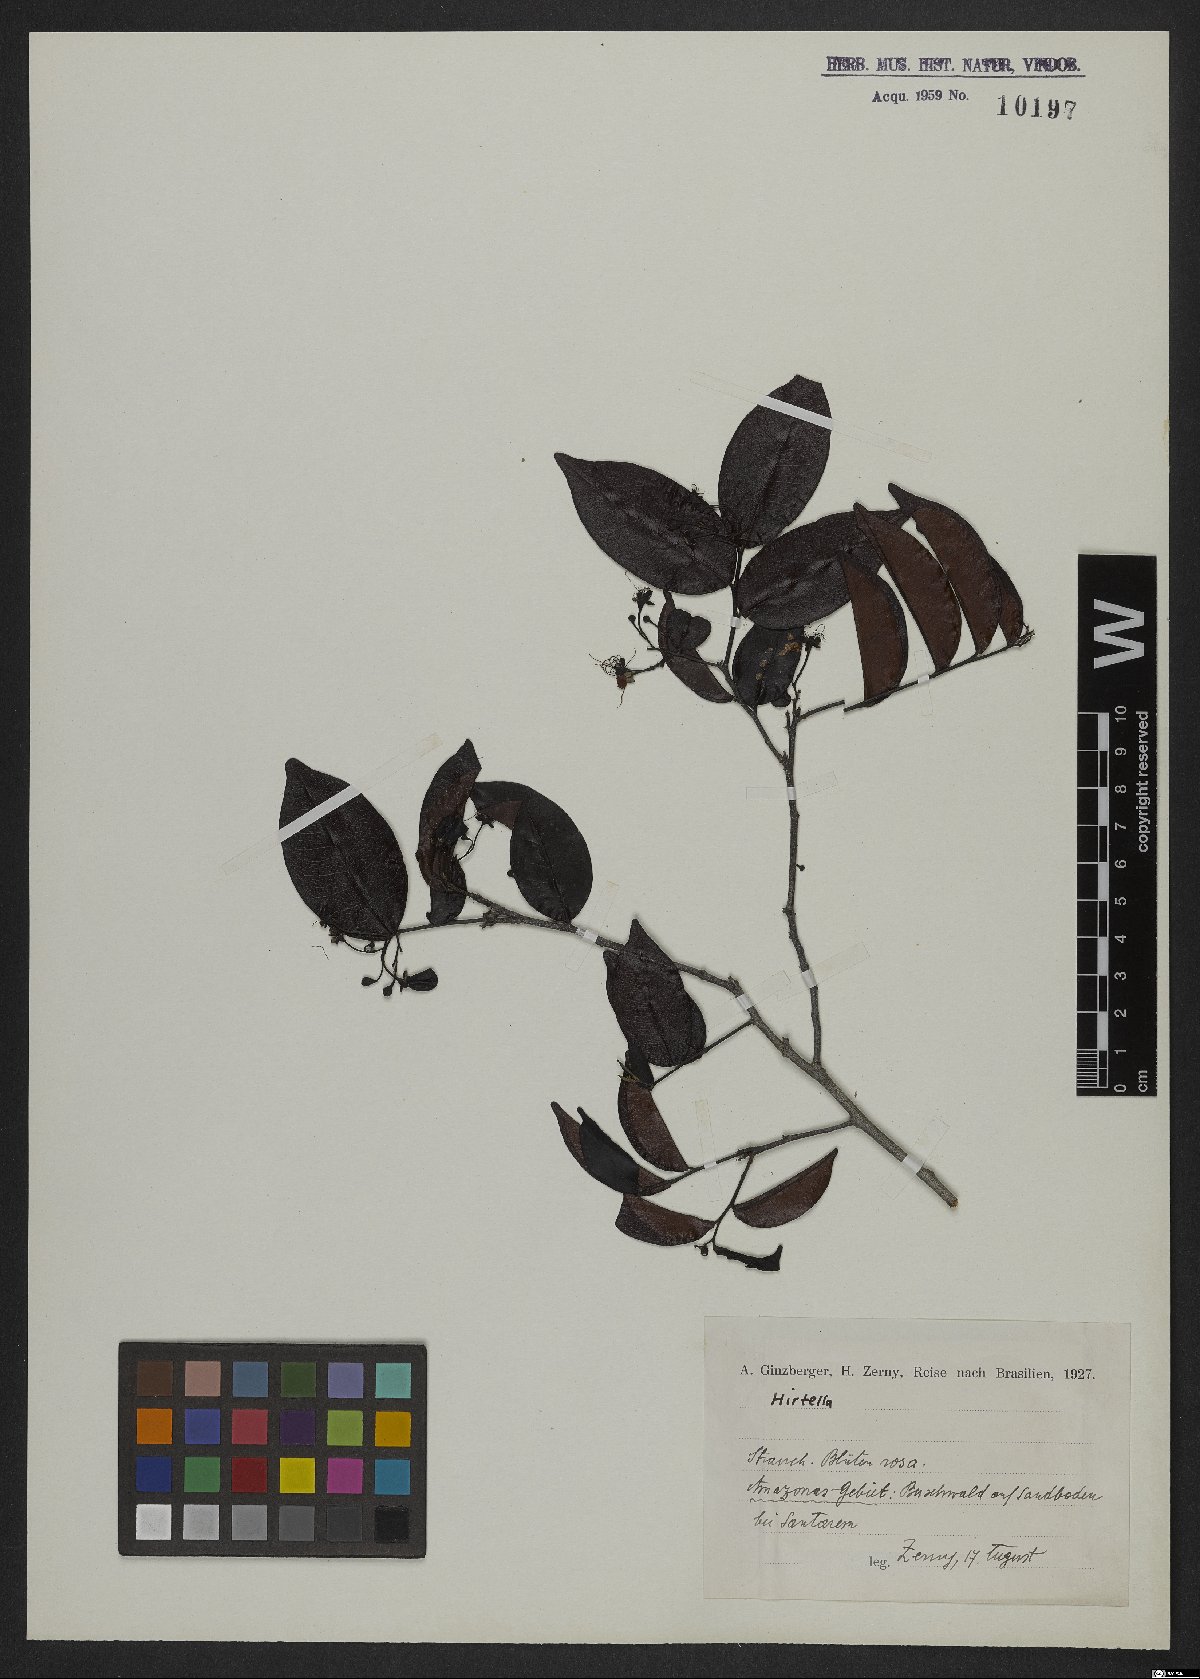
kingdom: Plantae
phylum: Tracheophyta
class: Magnoliopsida
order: Malpighiales
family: Chrysobalanaceae
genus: Hirtella
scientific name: Hirtella
